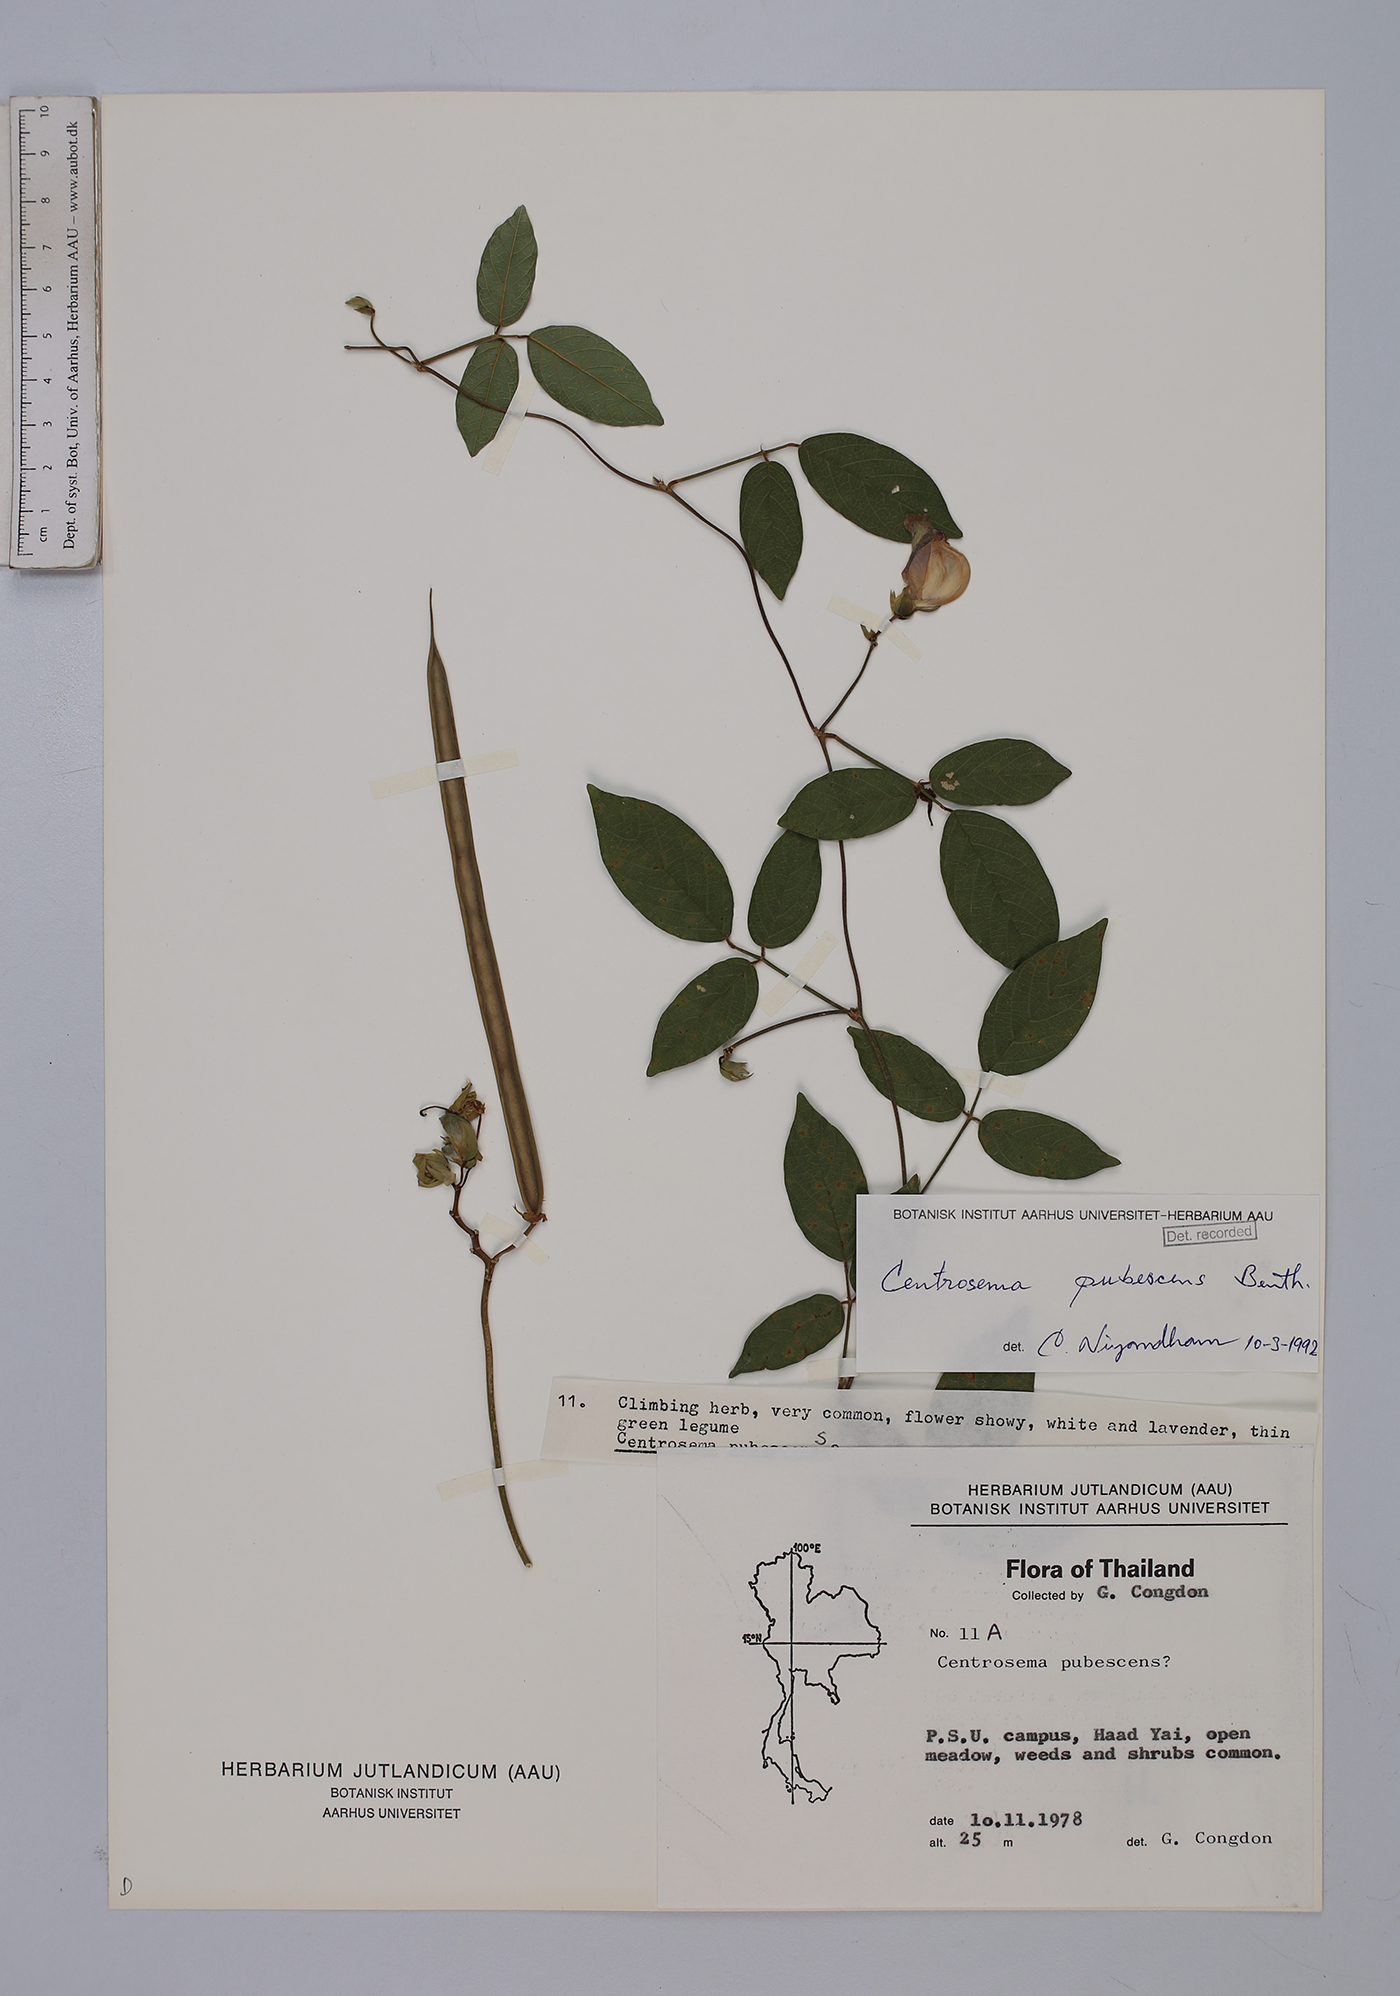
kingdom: Plantae
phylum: Tracheophyta
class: Magnoliopsida
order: Fabales
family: Fabaceae
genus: Centrosema
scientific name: Centrosema pubescens
